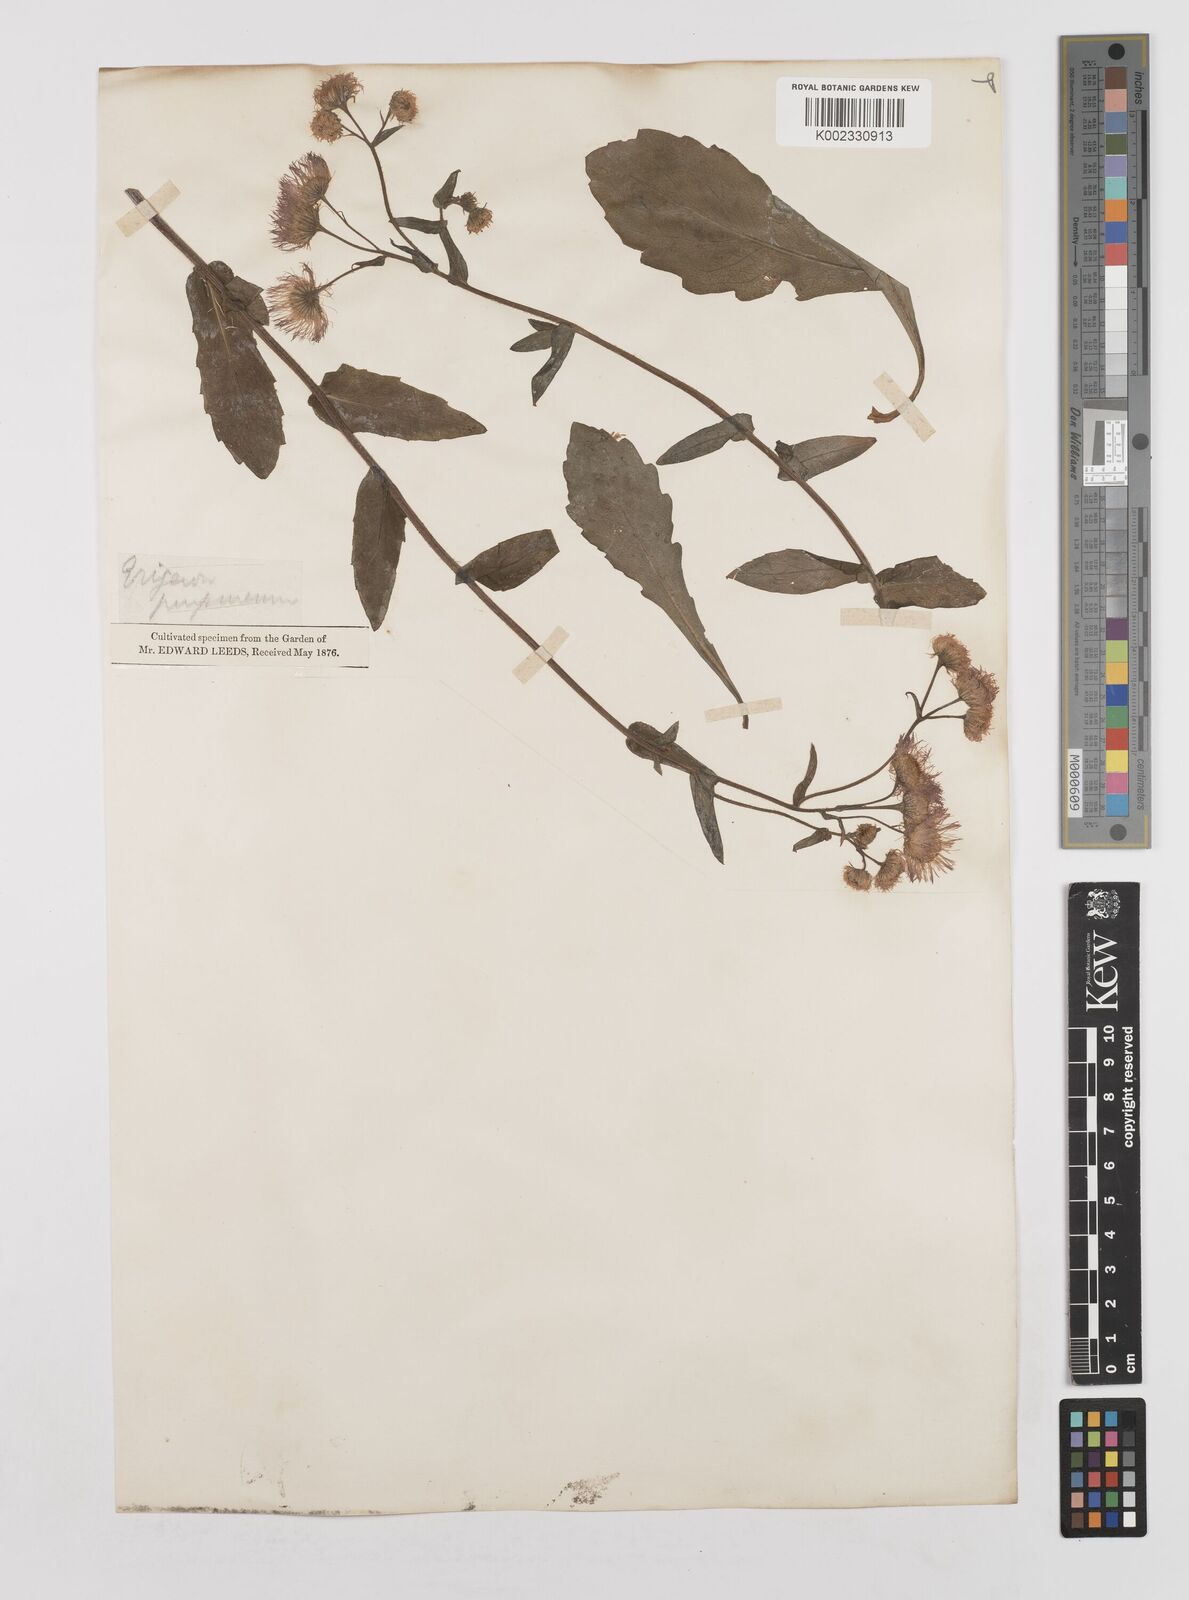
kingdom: Plantae
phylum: Tracheophyta
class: Magnoliopsida
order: Asterales
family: Asteraceae
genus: Erigeron
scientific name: Erigeron philadelphicus
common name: Robin's-plantain
